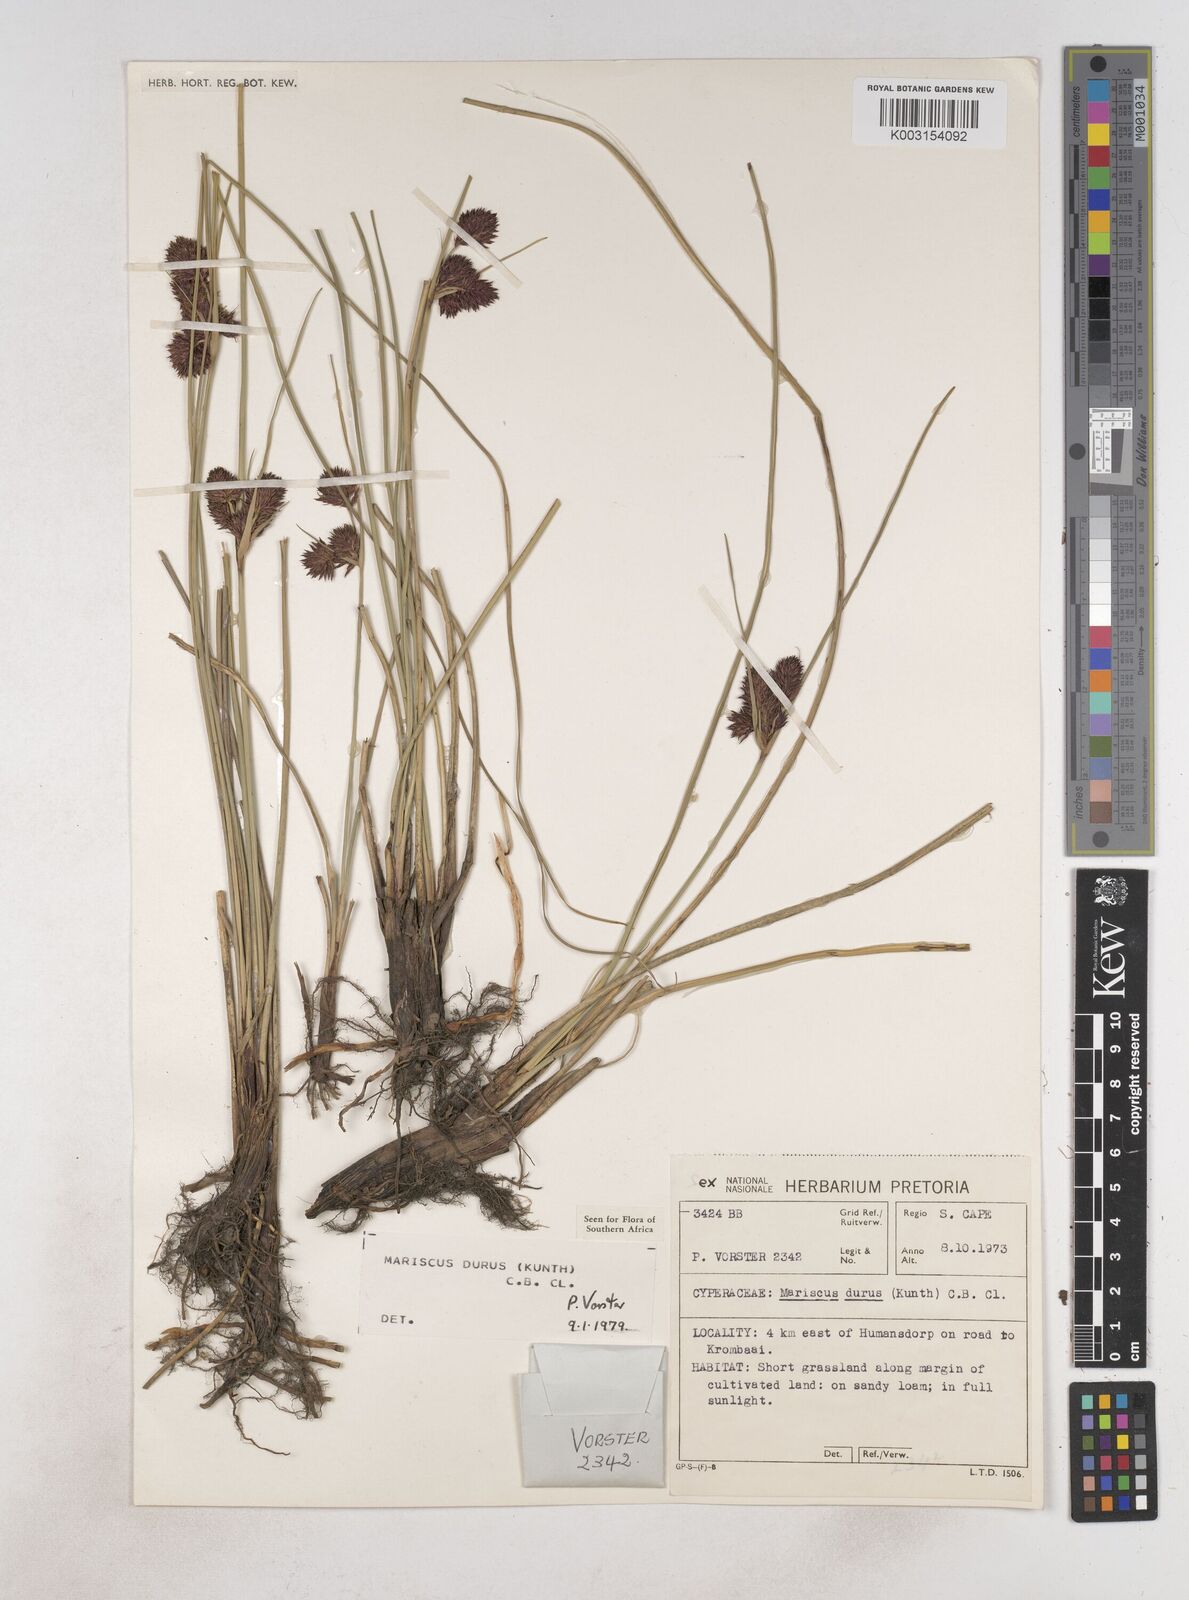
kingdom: Plantae
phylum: Tracheophyta
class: Liliopsida
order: Poales
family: Cyperaceae
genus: Cyperus
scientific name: Cyperus durus
